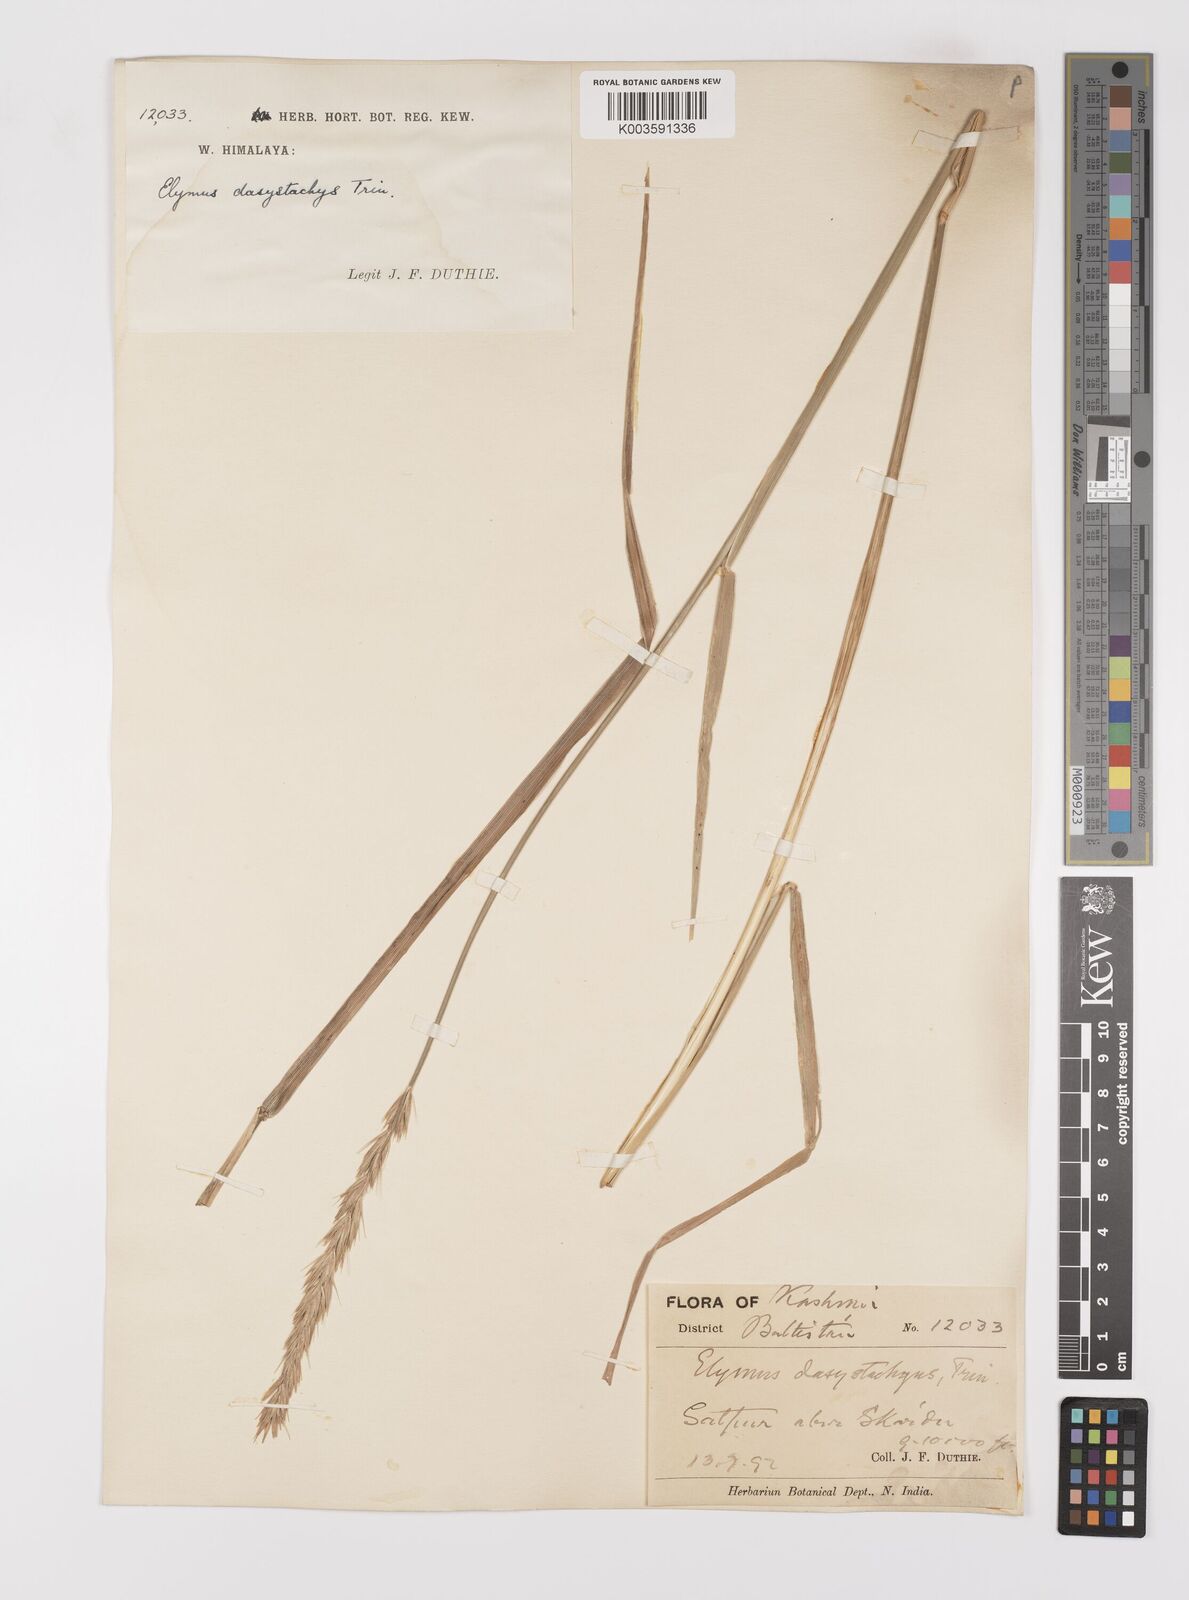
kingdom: Plantae
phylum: Tracheophyta
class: Liliopsida
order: Poales
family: Poaceae
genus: Leymus
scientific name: Leymus secalinus
